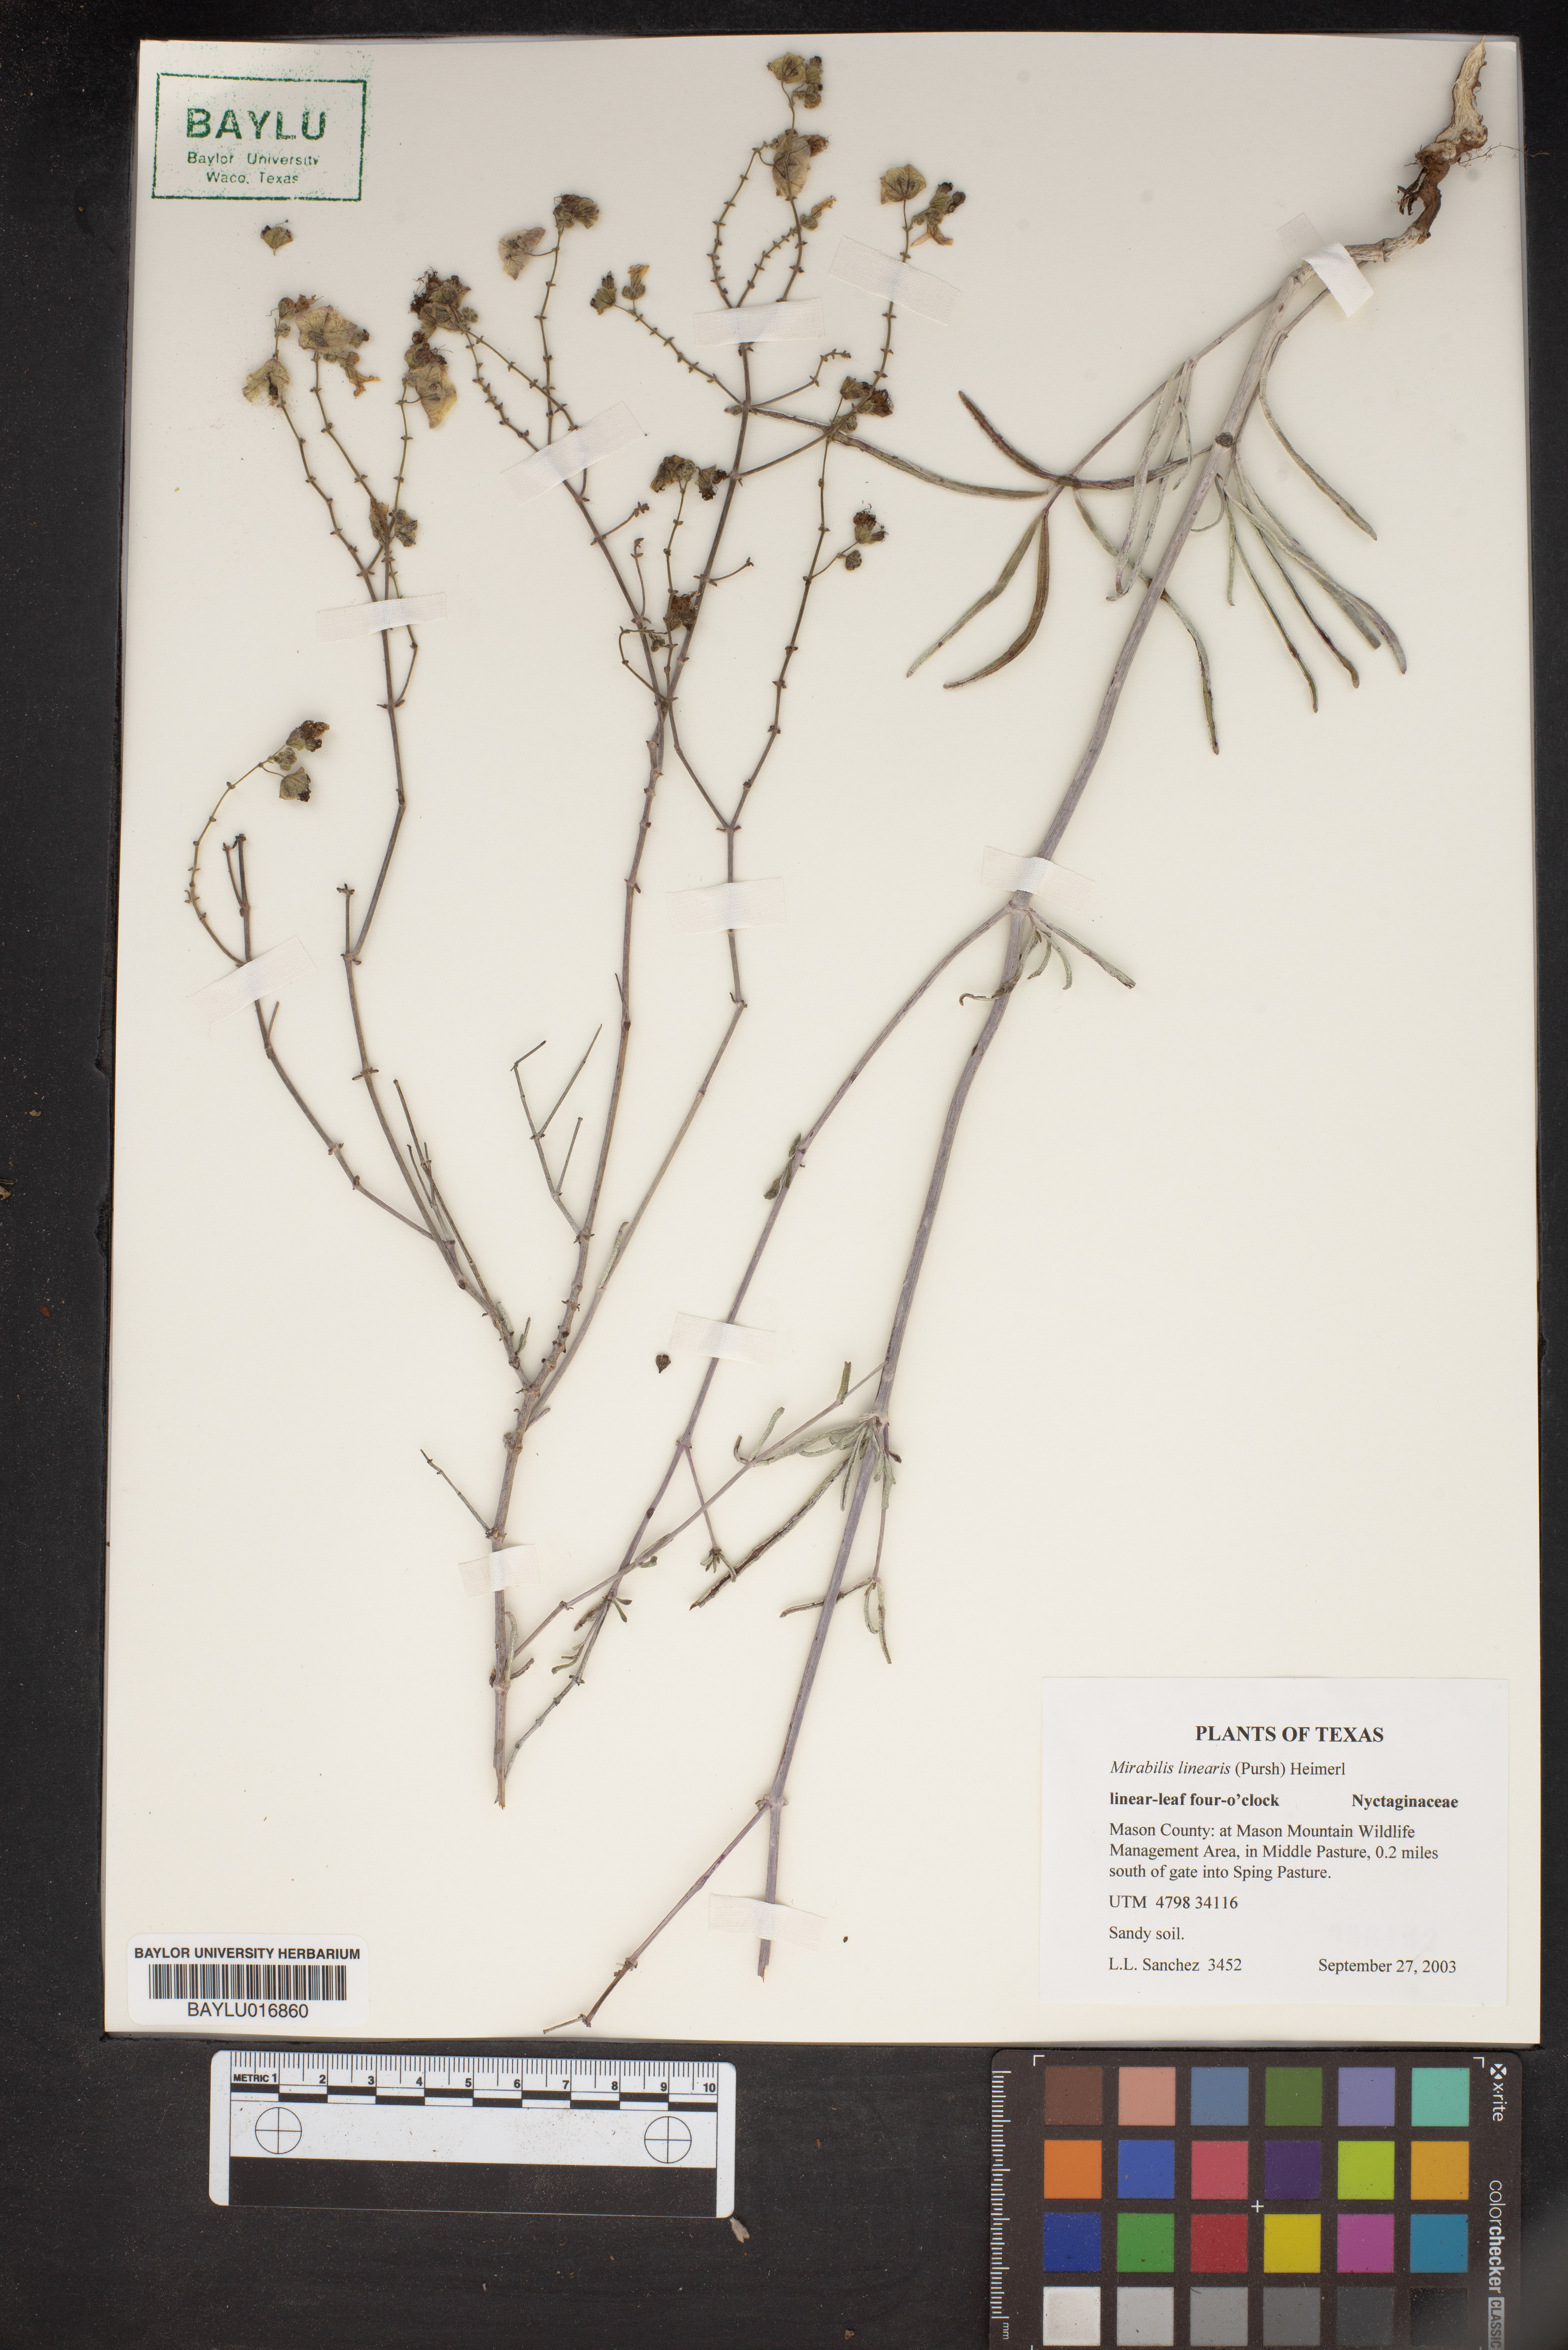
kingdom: Plantae
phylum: Tracheophyta
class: Magnoliopsida
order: Caryophyllales
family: Nyctaginaceae
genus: Mirabilis
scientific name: Mirabilis linearis
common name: Linear-leaved four-o'clock
